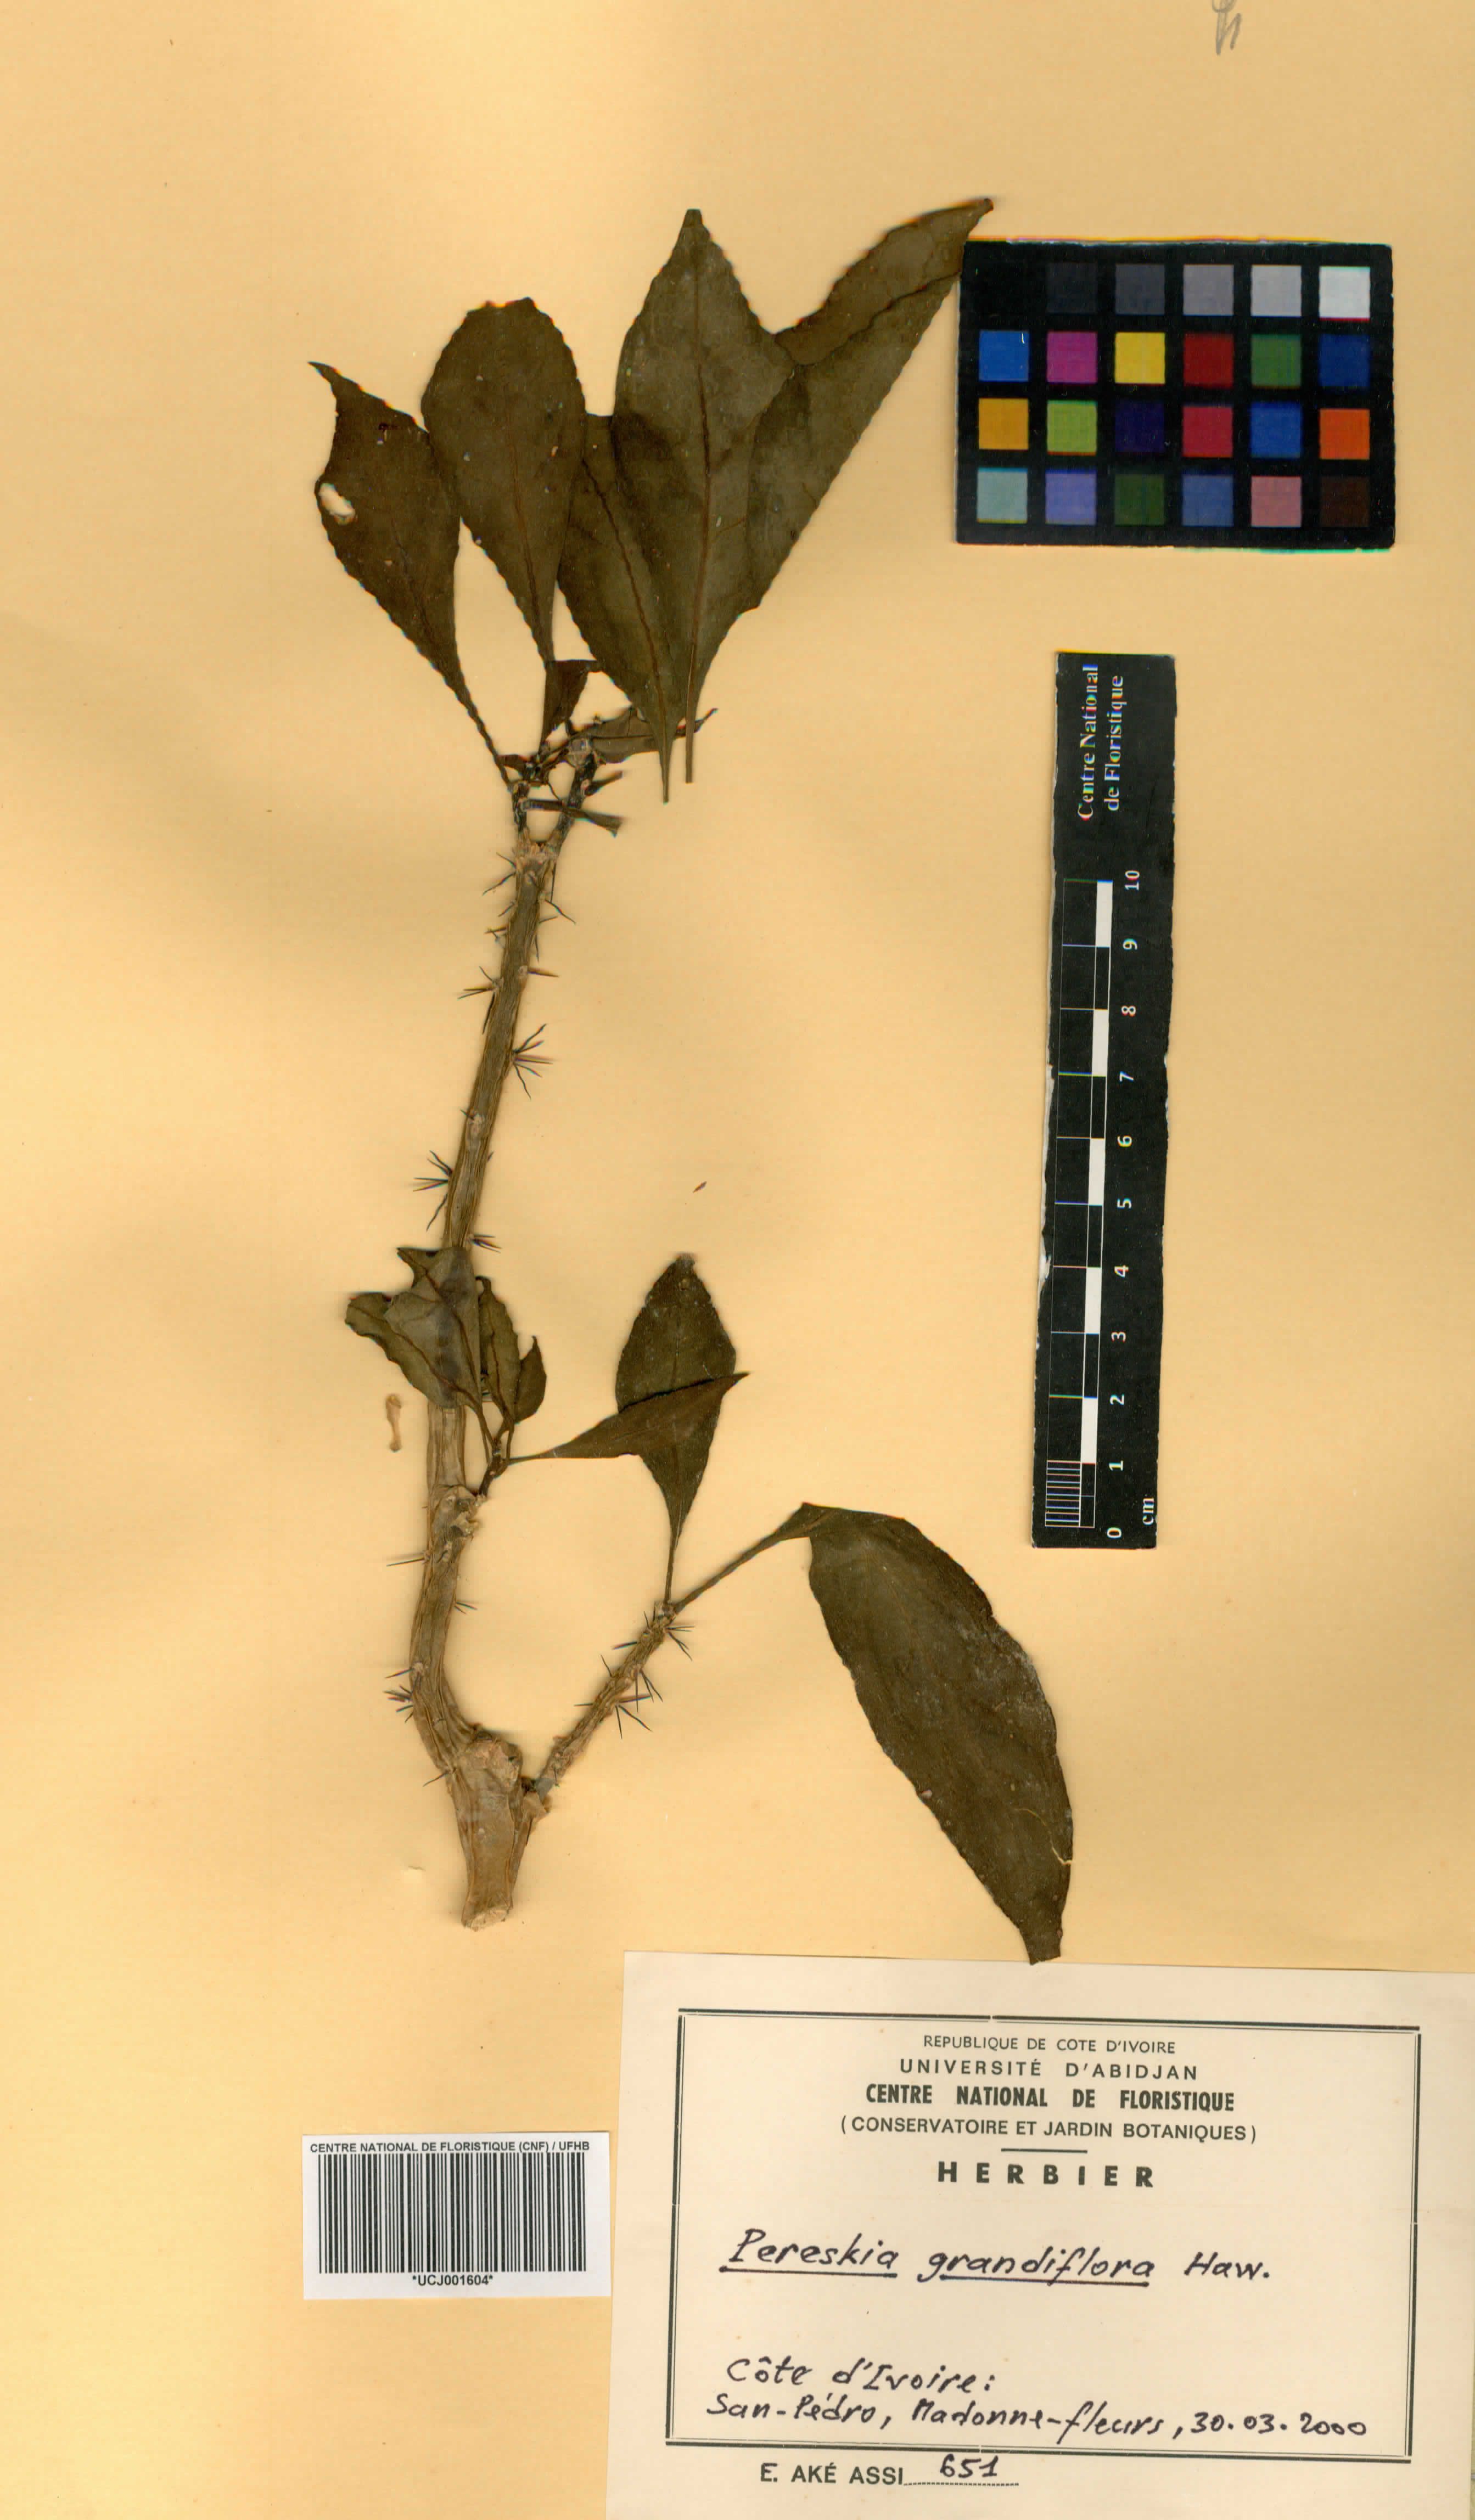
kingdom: Plantae
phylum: Tracheophyta
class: Magnoliopsida
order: Caryophyllales
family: Cactaceae
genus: Pereskia
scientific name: Pereskia grandifolia
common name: Rose cactus
